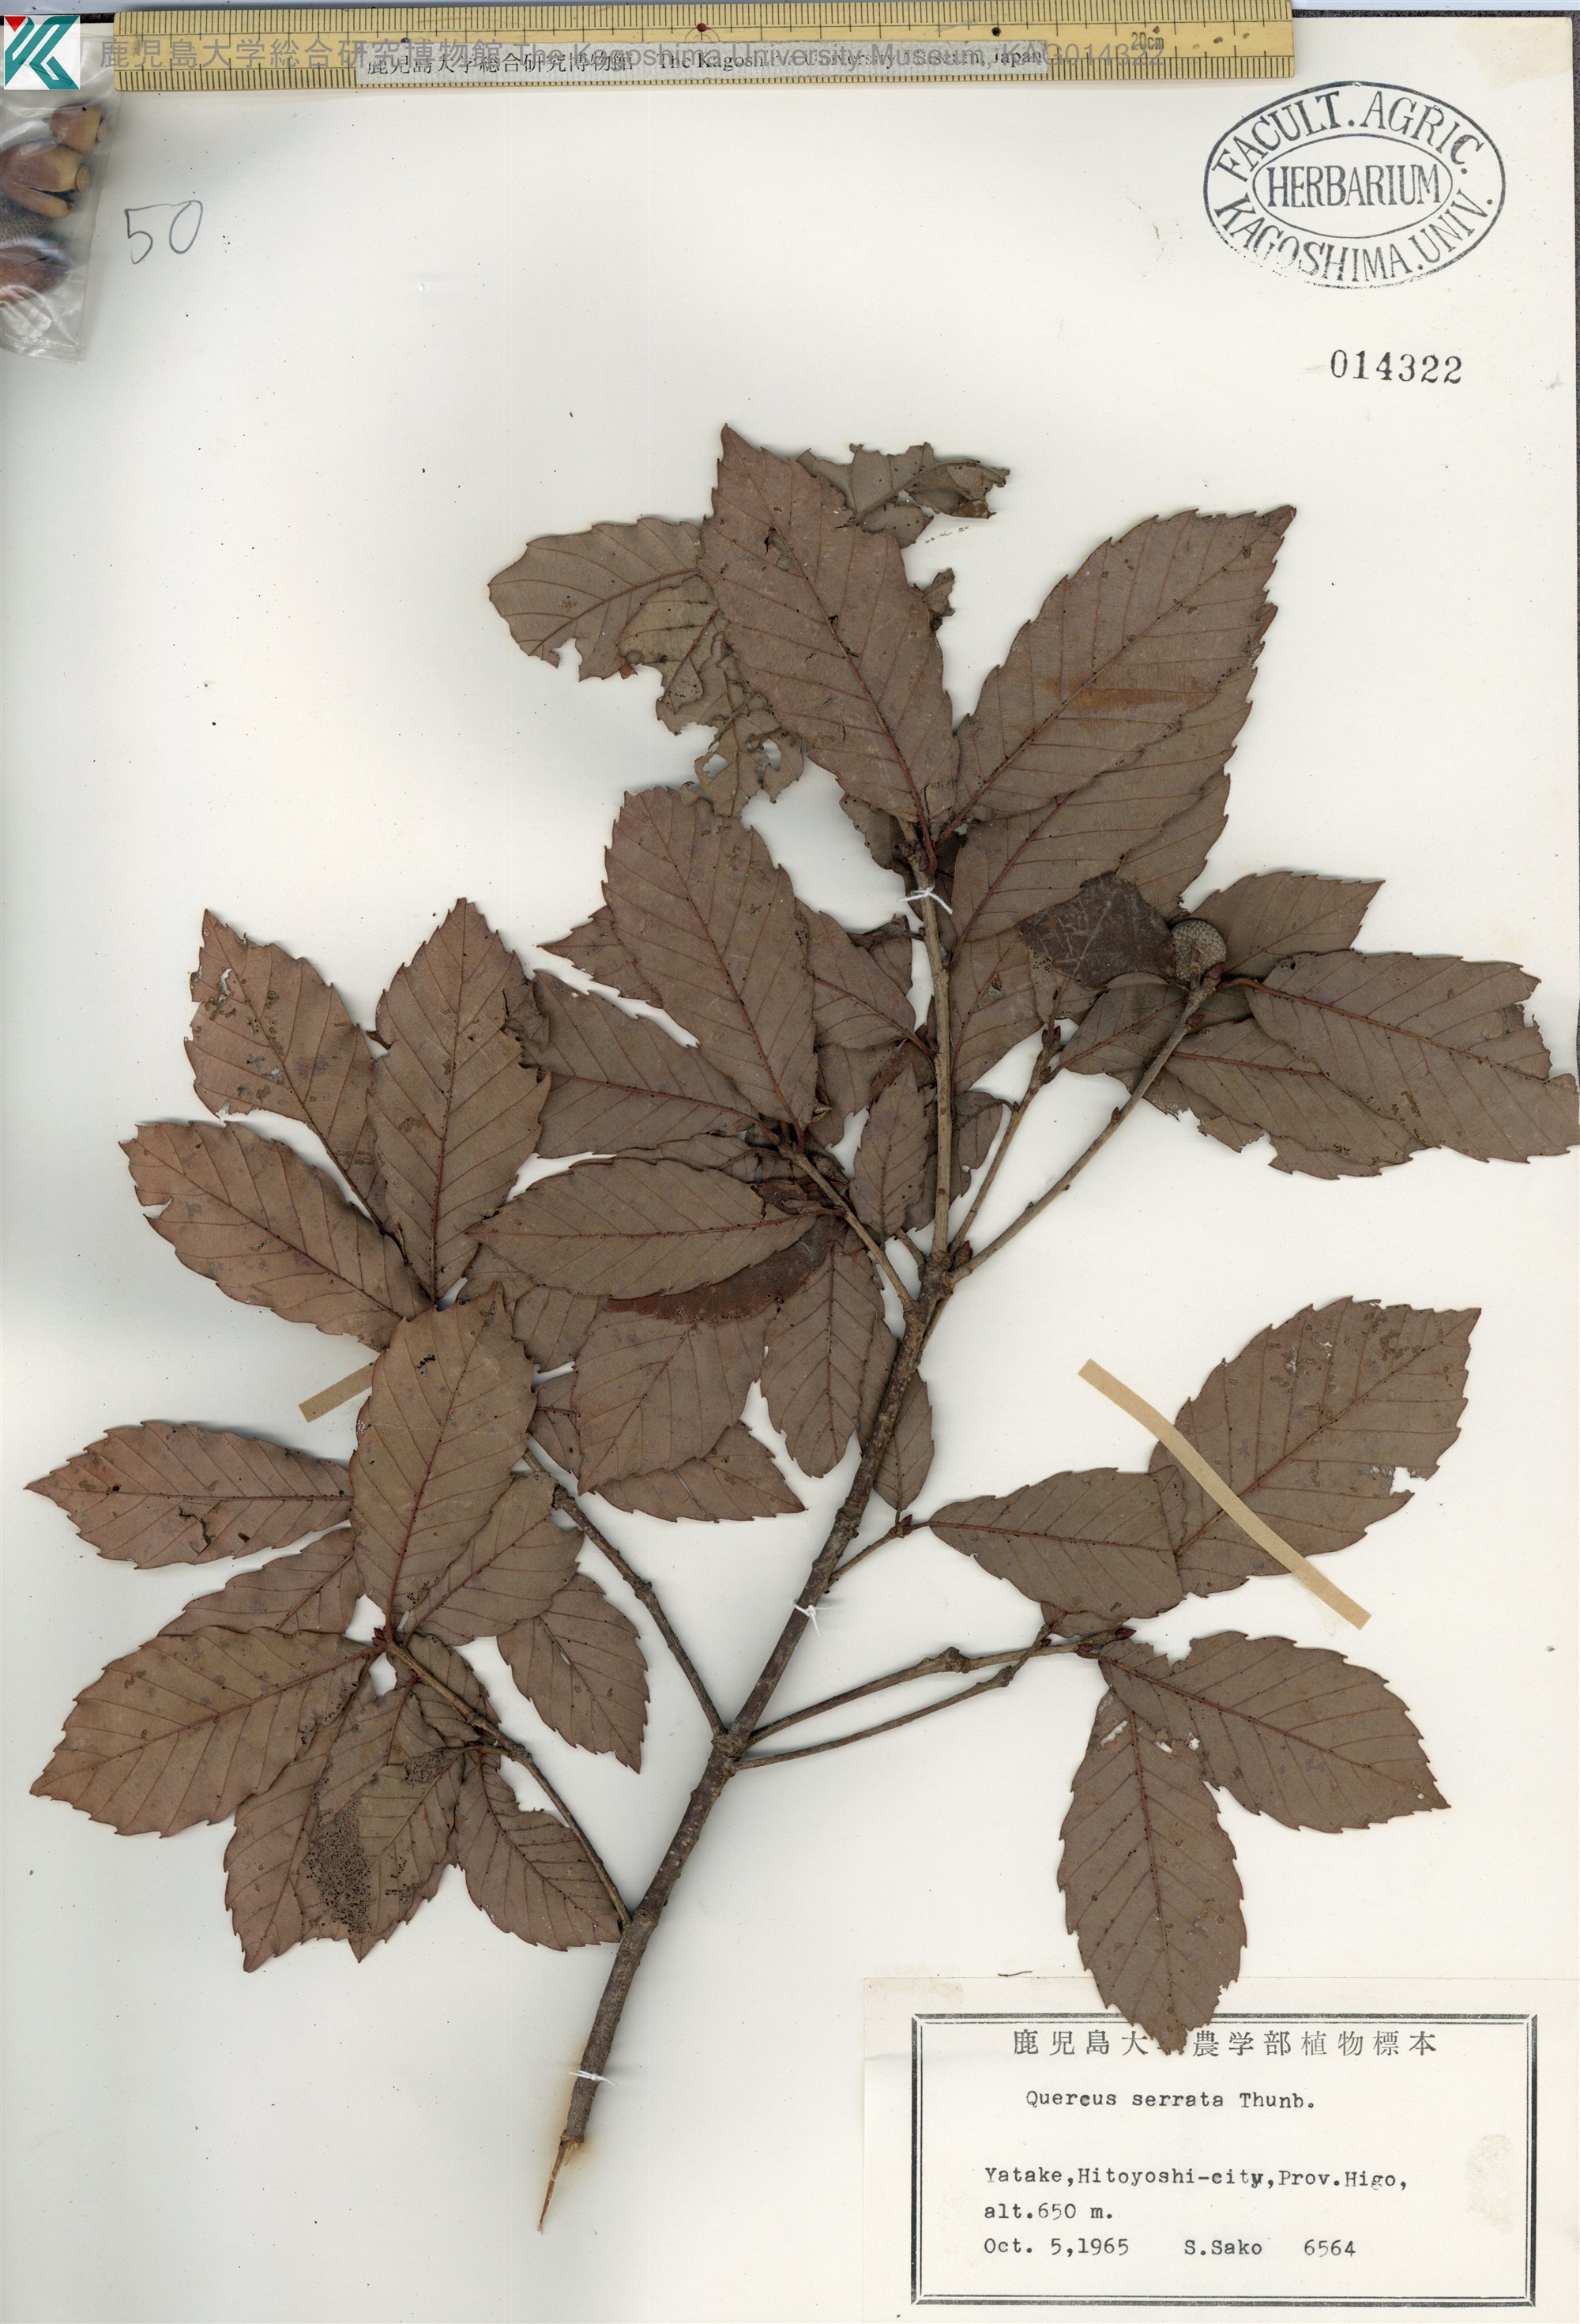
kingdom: Plantae
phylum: Tracheophyta
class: Magnoliopsida
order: Fagales
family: Fagaceae
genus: Quercus
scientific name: Quercus serrata
